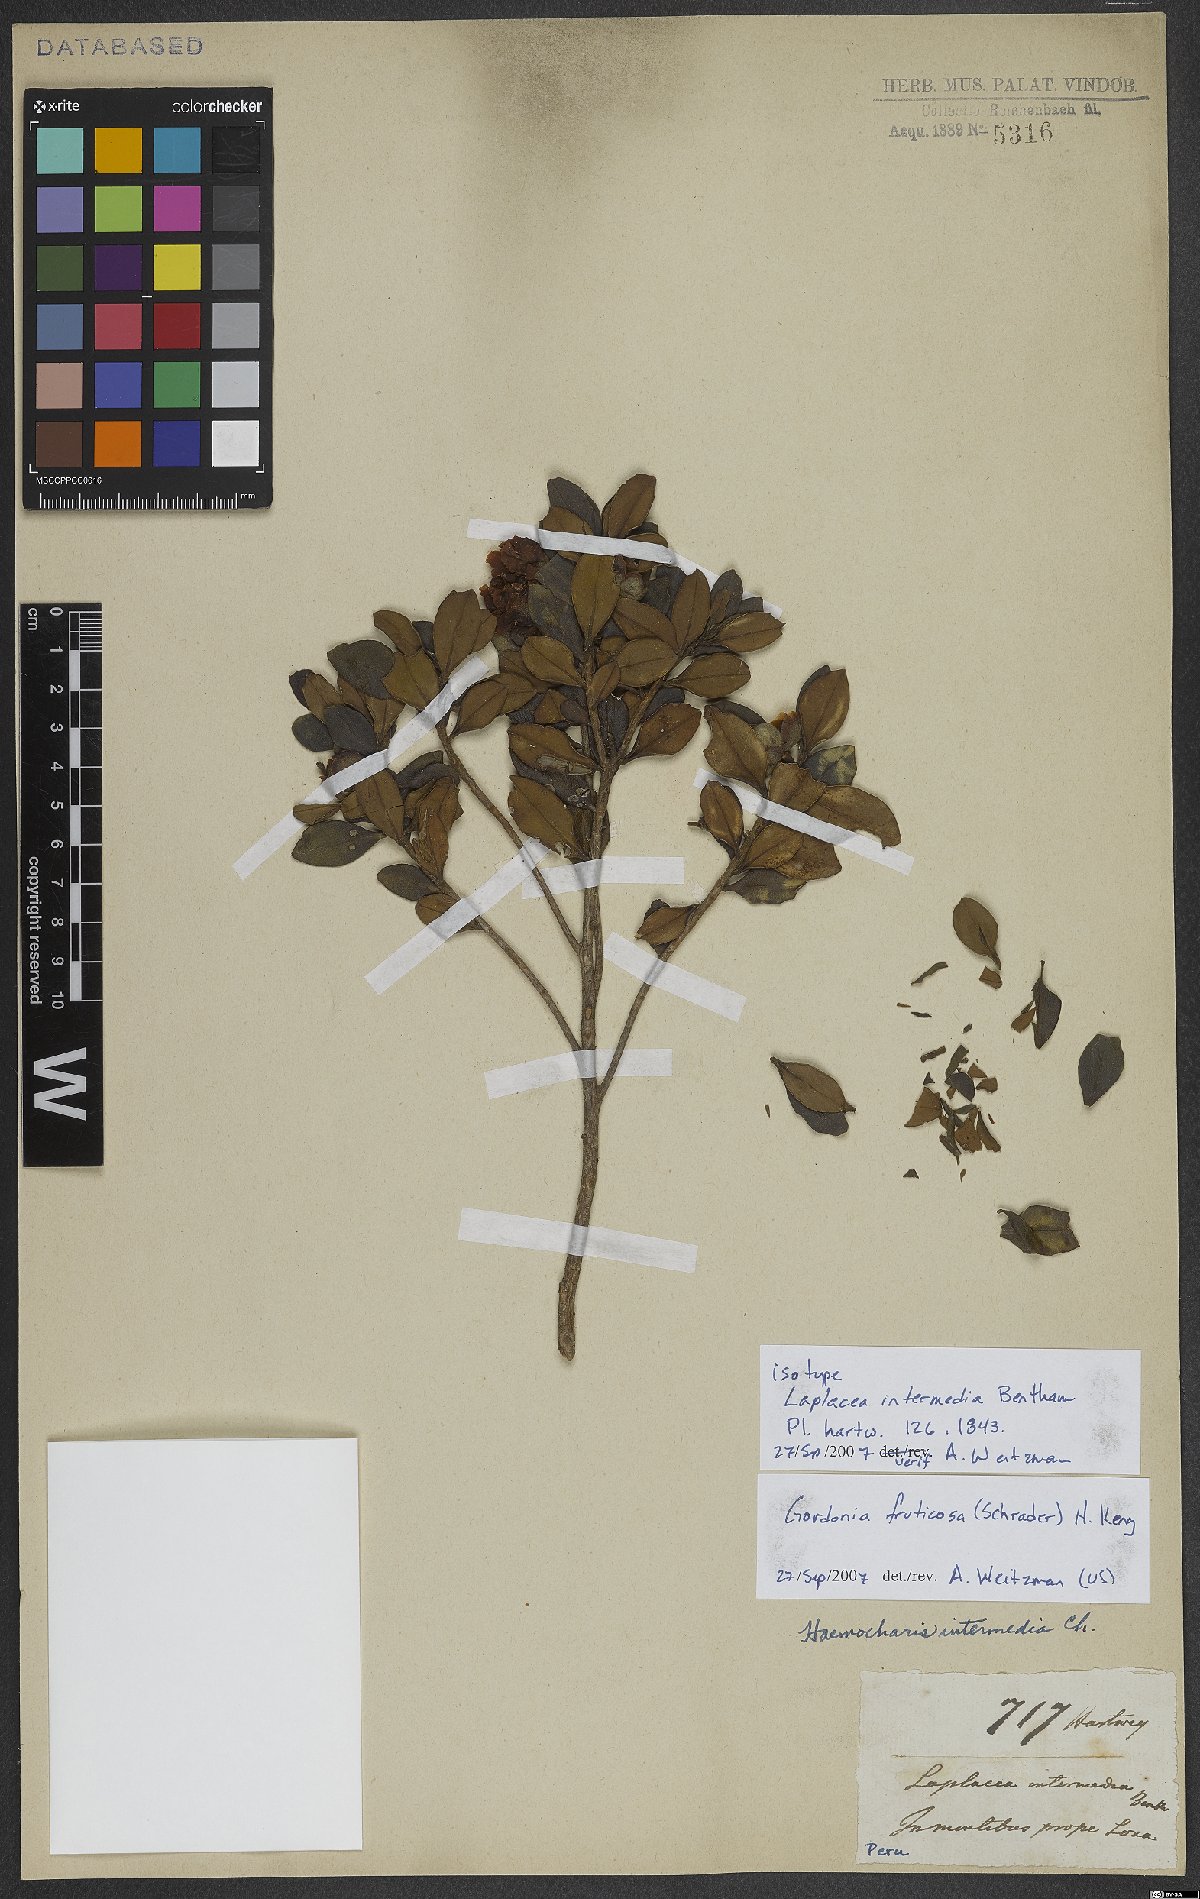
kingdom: Plantae
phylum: Tracheophyta
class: Magnoliopsida
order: Ericales
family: Theaceae
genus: Gordonia
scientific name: Gordonia fruticosa
